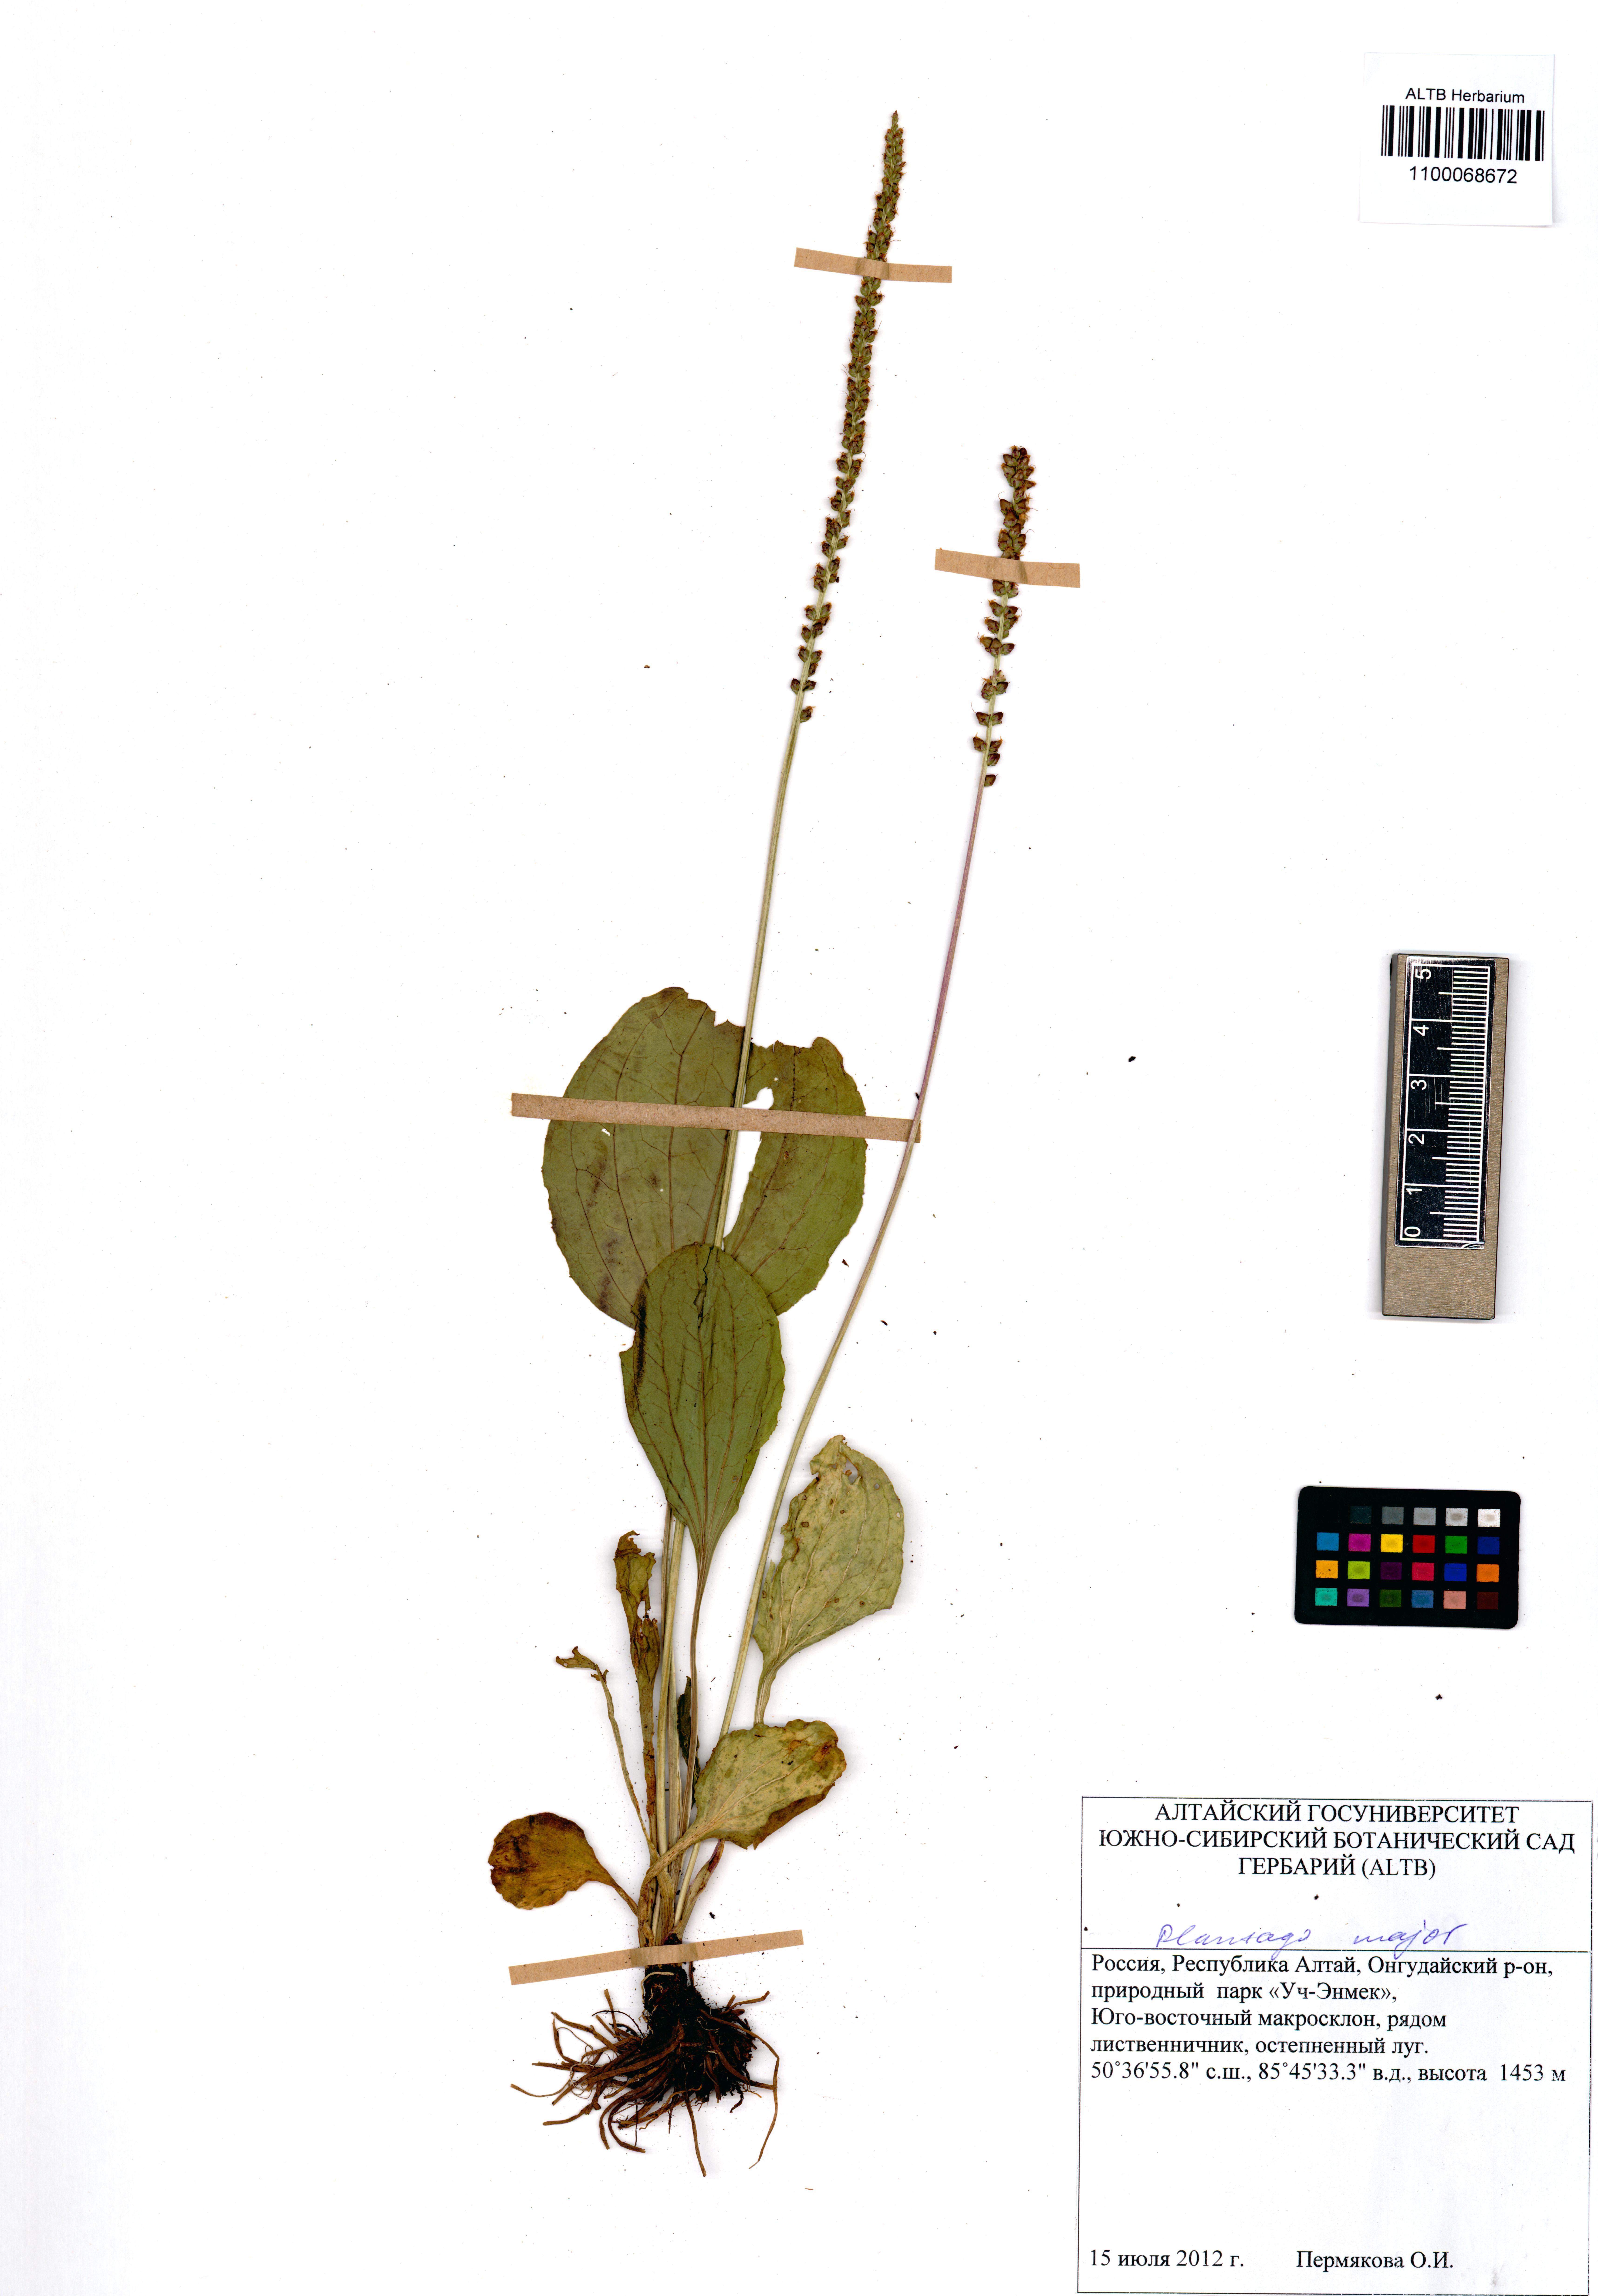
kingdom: Plantae
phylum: Tracheophyta
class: Magnoliopsida
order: Lamiales
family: Plantaginaceae
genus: Plantago
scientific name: Plantago major
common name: Common plantain
